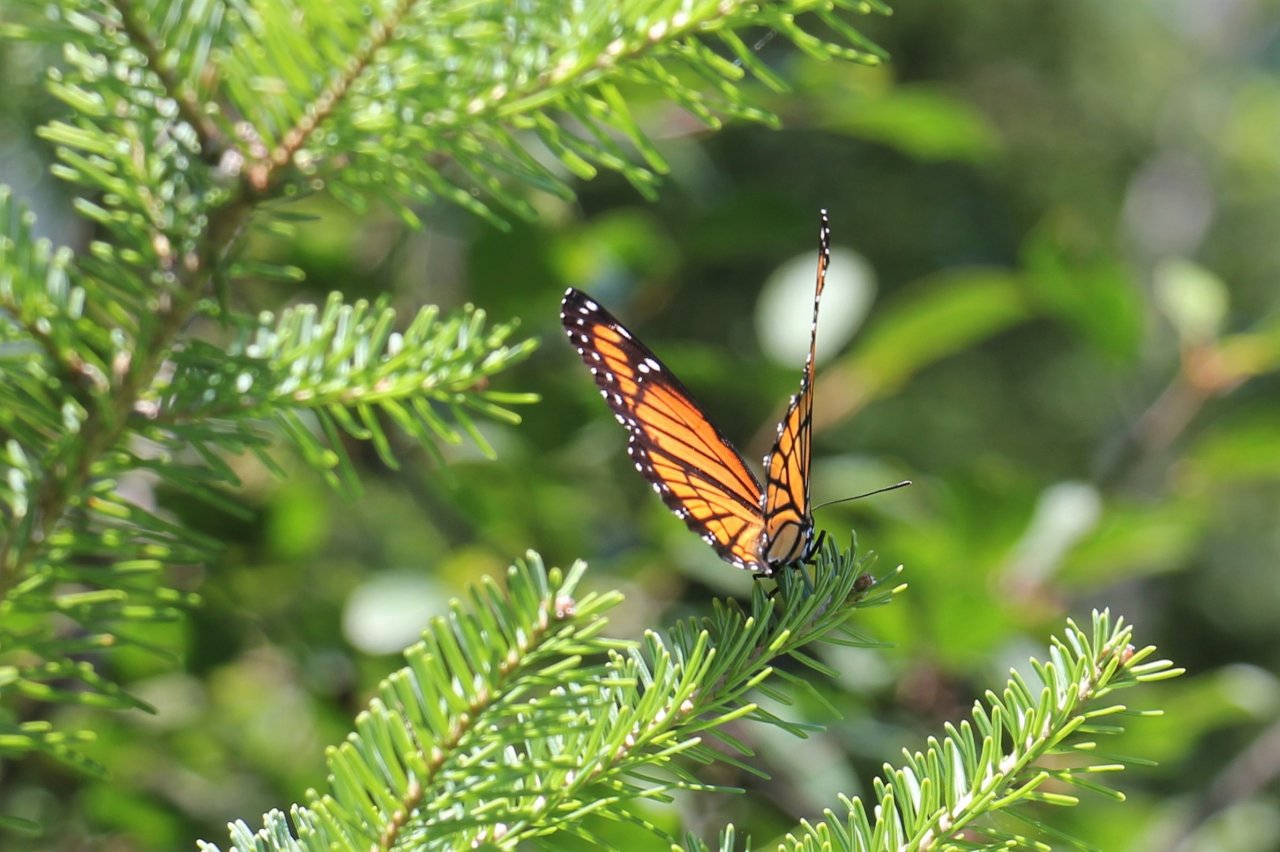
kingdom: Animalia
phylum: Arthropoda
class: Insecta
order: Lepidoptera
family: Nymphalidae
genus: Limenitis
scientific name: Limenitis archippus
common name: Viceroy
